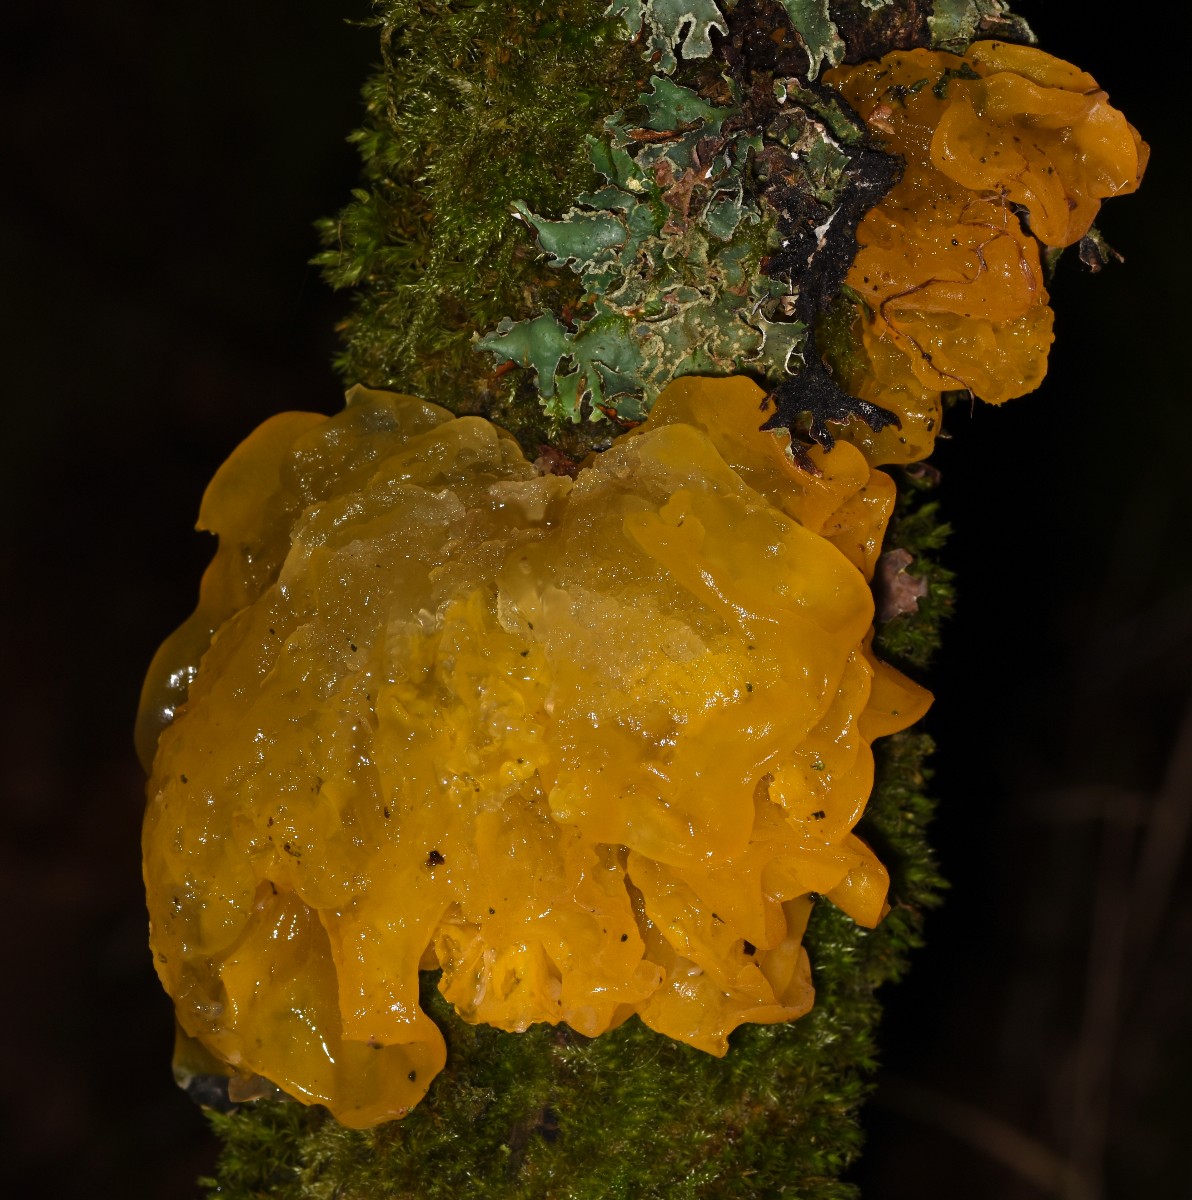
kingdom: Fungi
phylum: Basidiomycota
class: Tremellomycetes
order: Tremellales
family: Tremellaceae
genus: Tremella
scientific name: Tremella mesenterica
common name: gul bævresvamp
